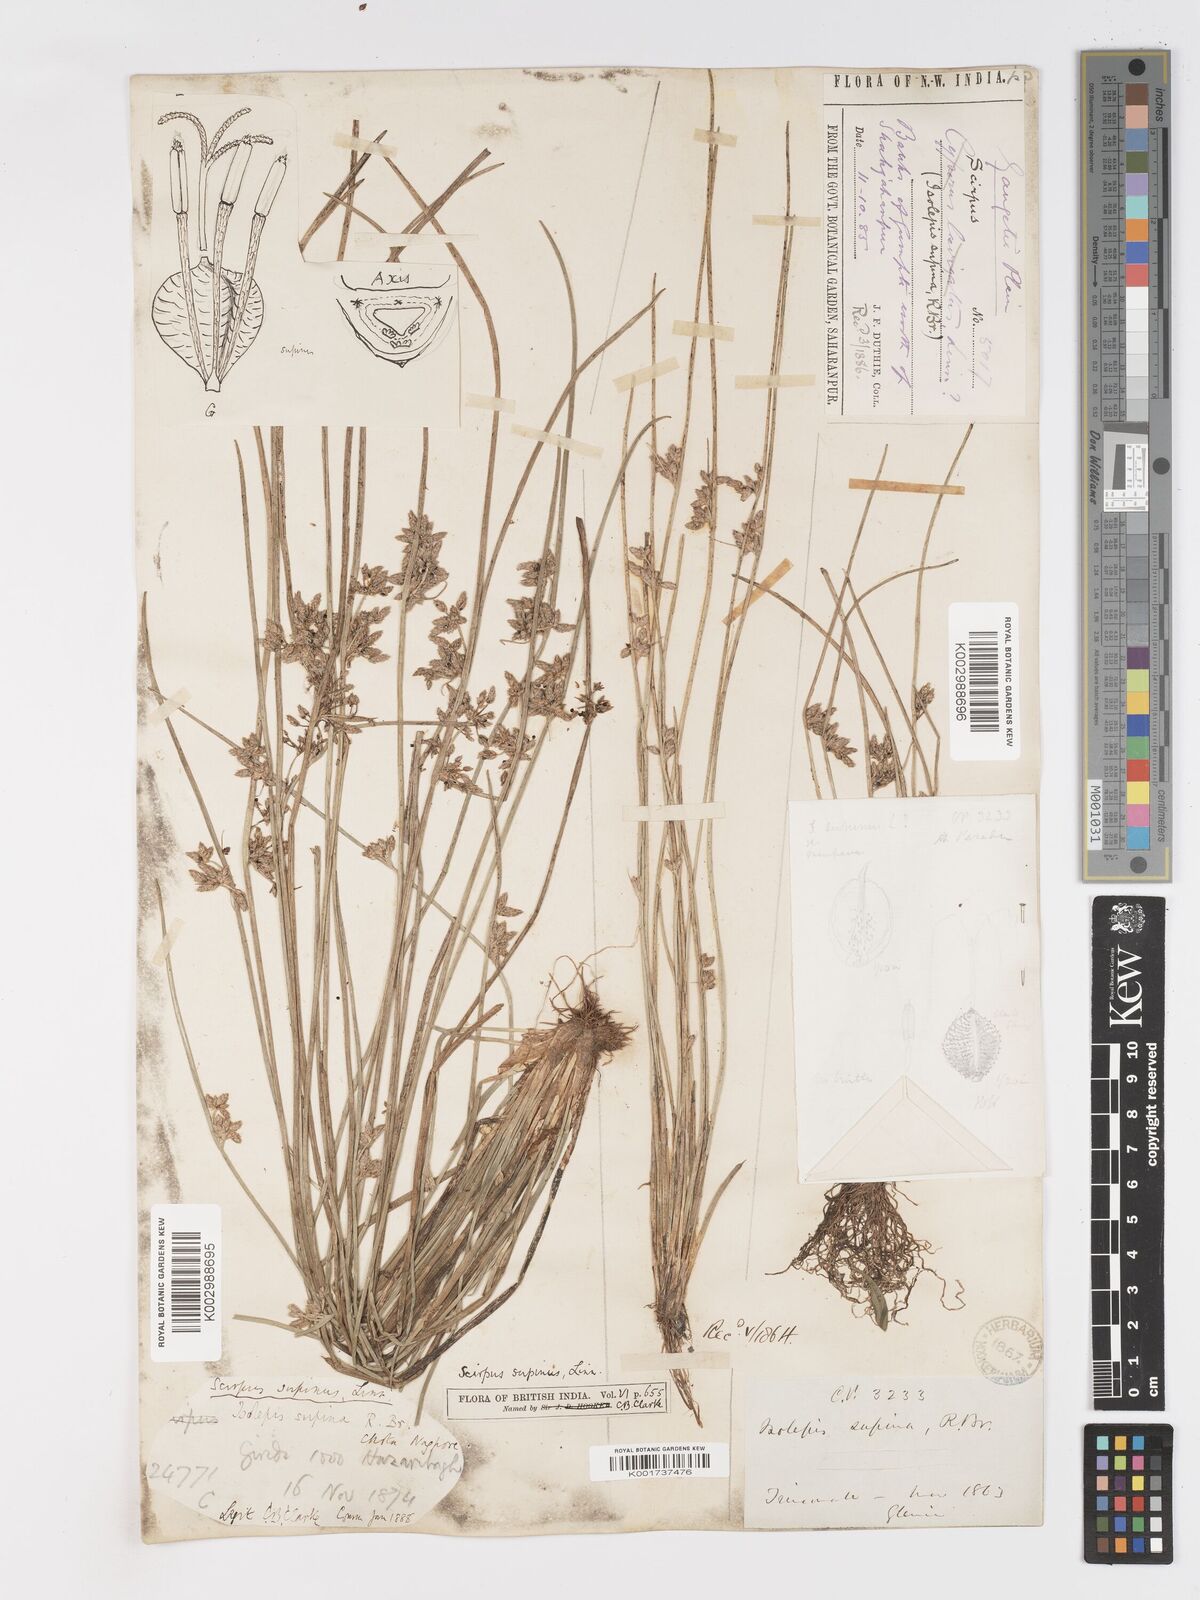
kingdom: Plantae
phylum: Tracheophyta
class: Liliopsida
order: Poales
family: Cyperaceae
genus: Schoenoplectiella
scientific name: Schoenoplectiella lateriflora
